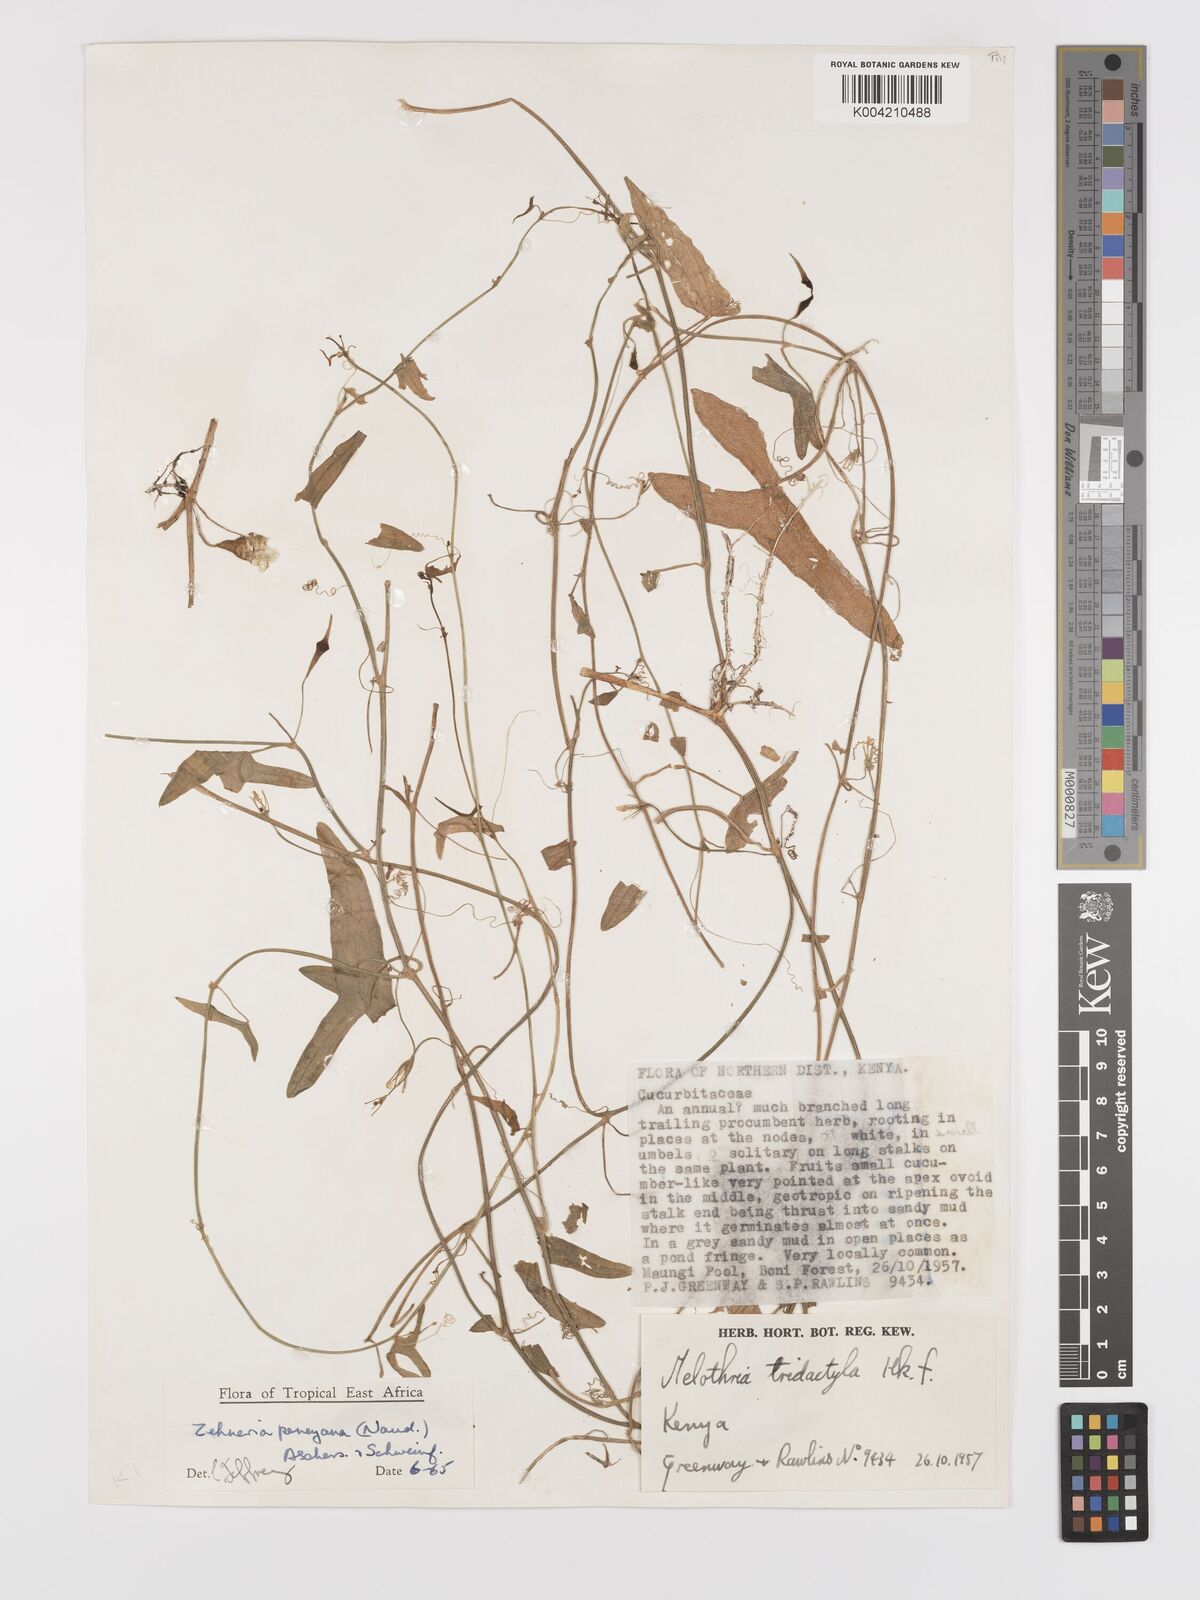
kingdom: Plantae
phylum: Tracheophyta
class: Magnoliopsida
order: Cucurbitales
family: Cucurbitaceae
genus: Zehneria
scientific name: Zehneria peneyana
